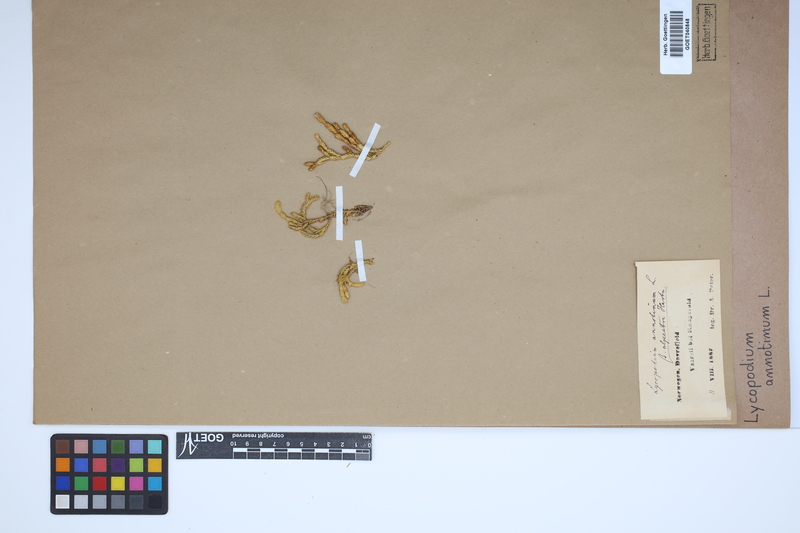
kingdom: Plantae
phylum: Tracheophyta
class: Lycopodiopsida
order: Lycopodiales
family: Lycopodiaceae
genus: Spinulum
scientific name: Spinulum annotinum
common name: Interrupted club-moss
